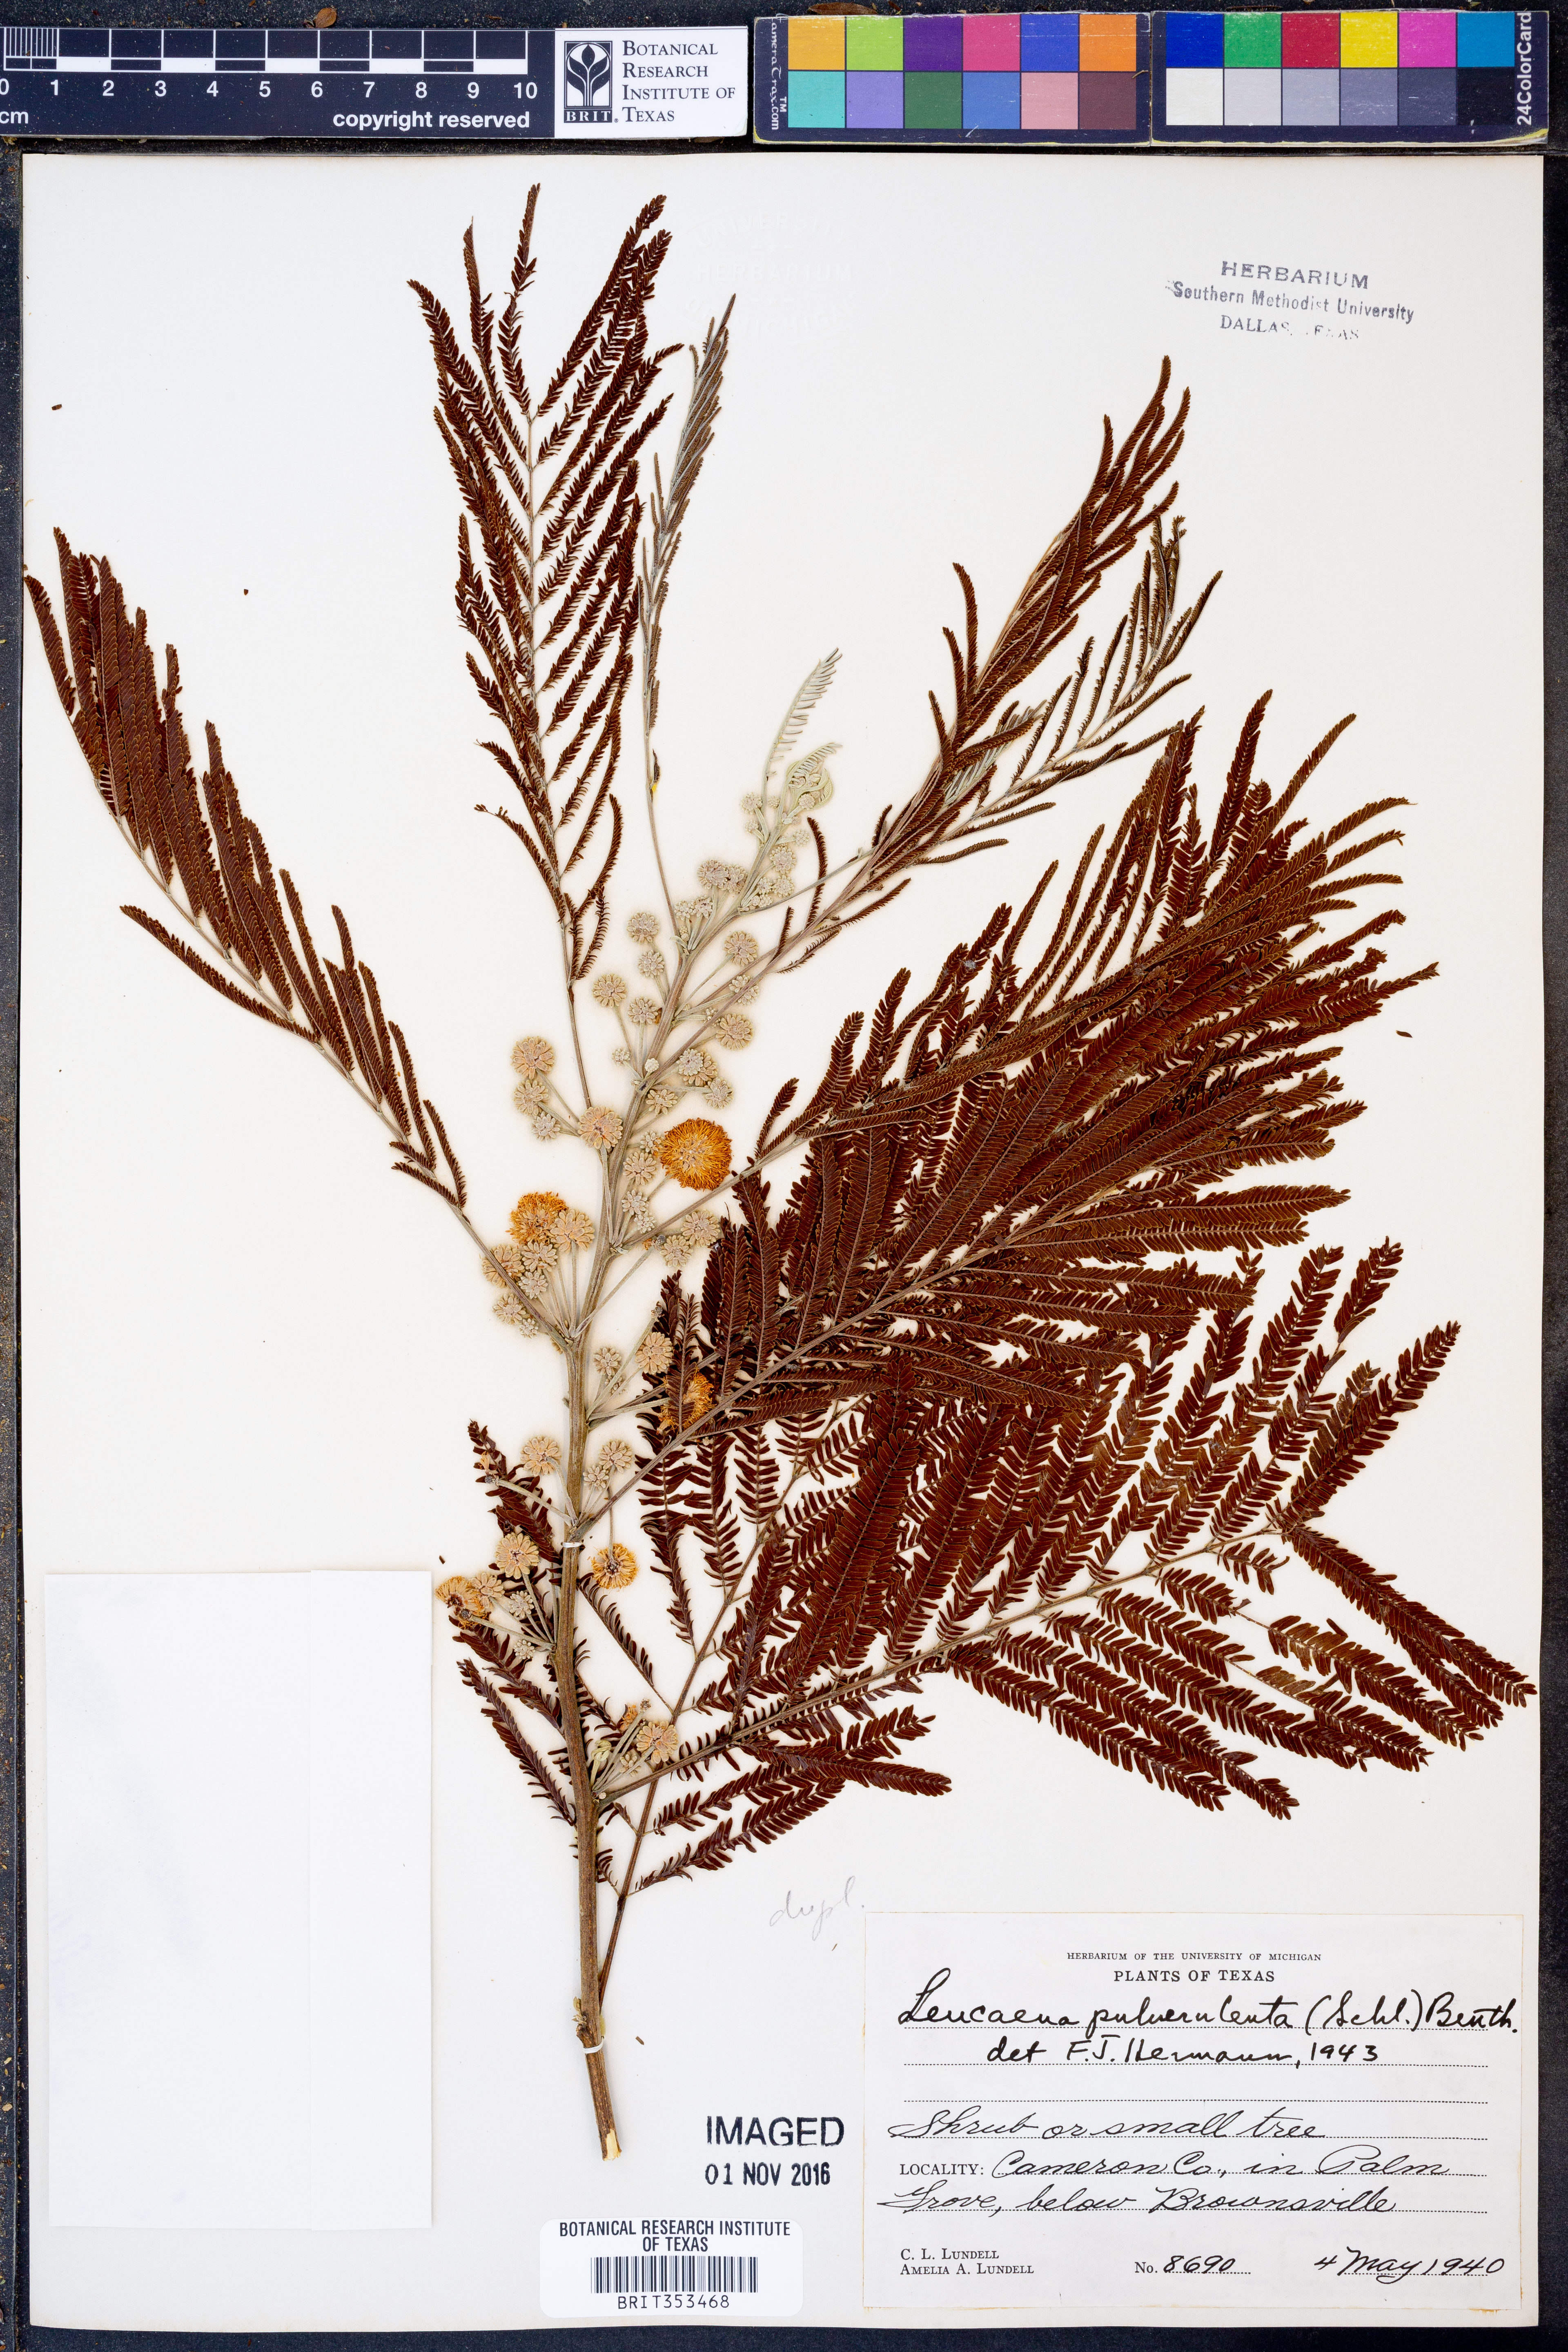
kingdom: Plantae
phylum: Tracheophyta
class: Magnoliopsida
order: Fabales
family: Fabaceae
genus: Leucaena
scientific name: Leucaena pulverulenta
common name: Great leadtree
